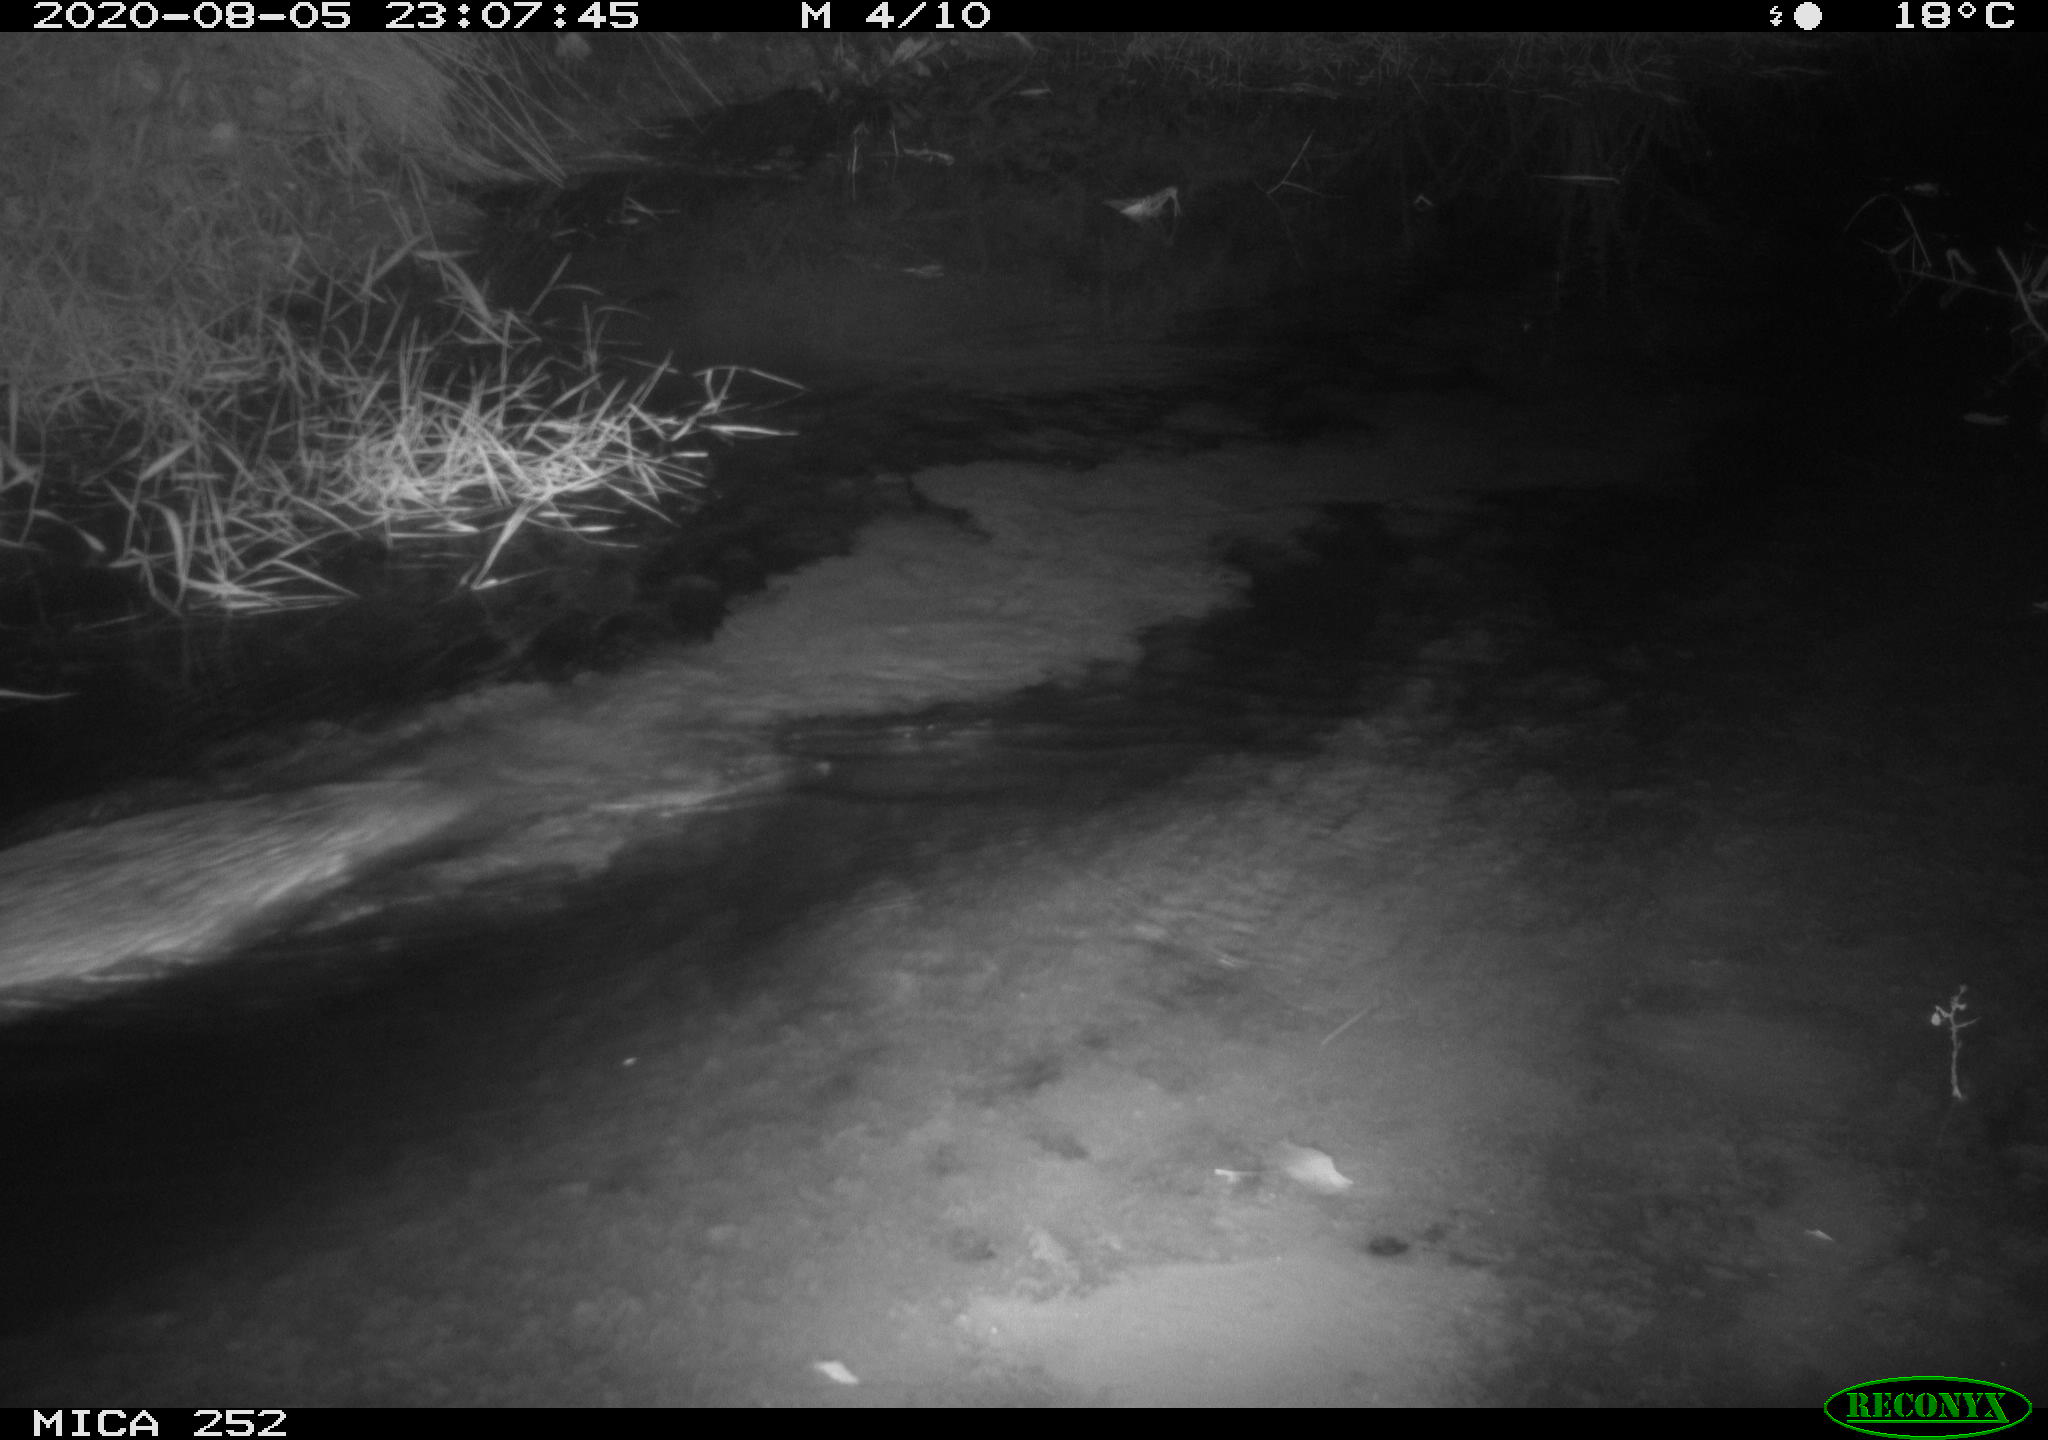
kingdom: Animalia
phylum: Chordata
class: Mammalia
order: Rodentia
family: Castoridae
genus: Castor
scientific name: Castor fiber
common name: Eurasian beaver
